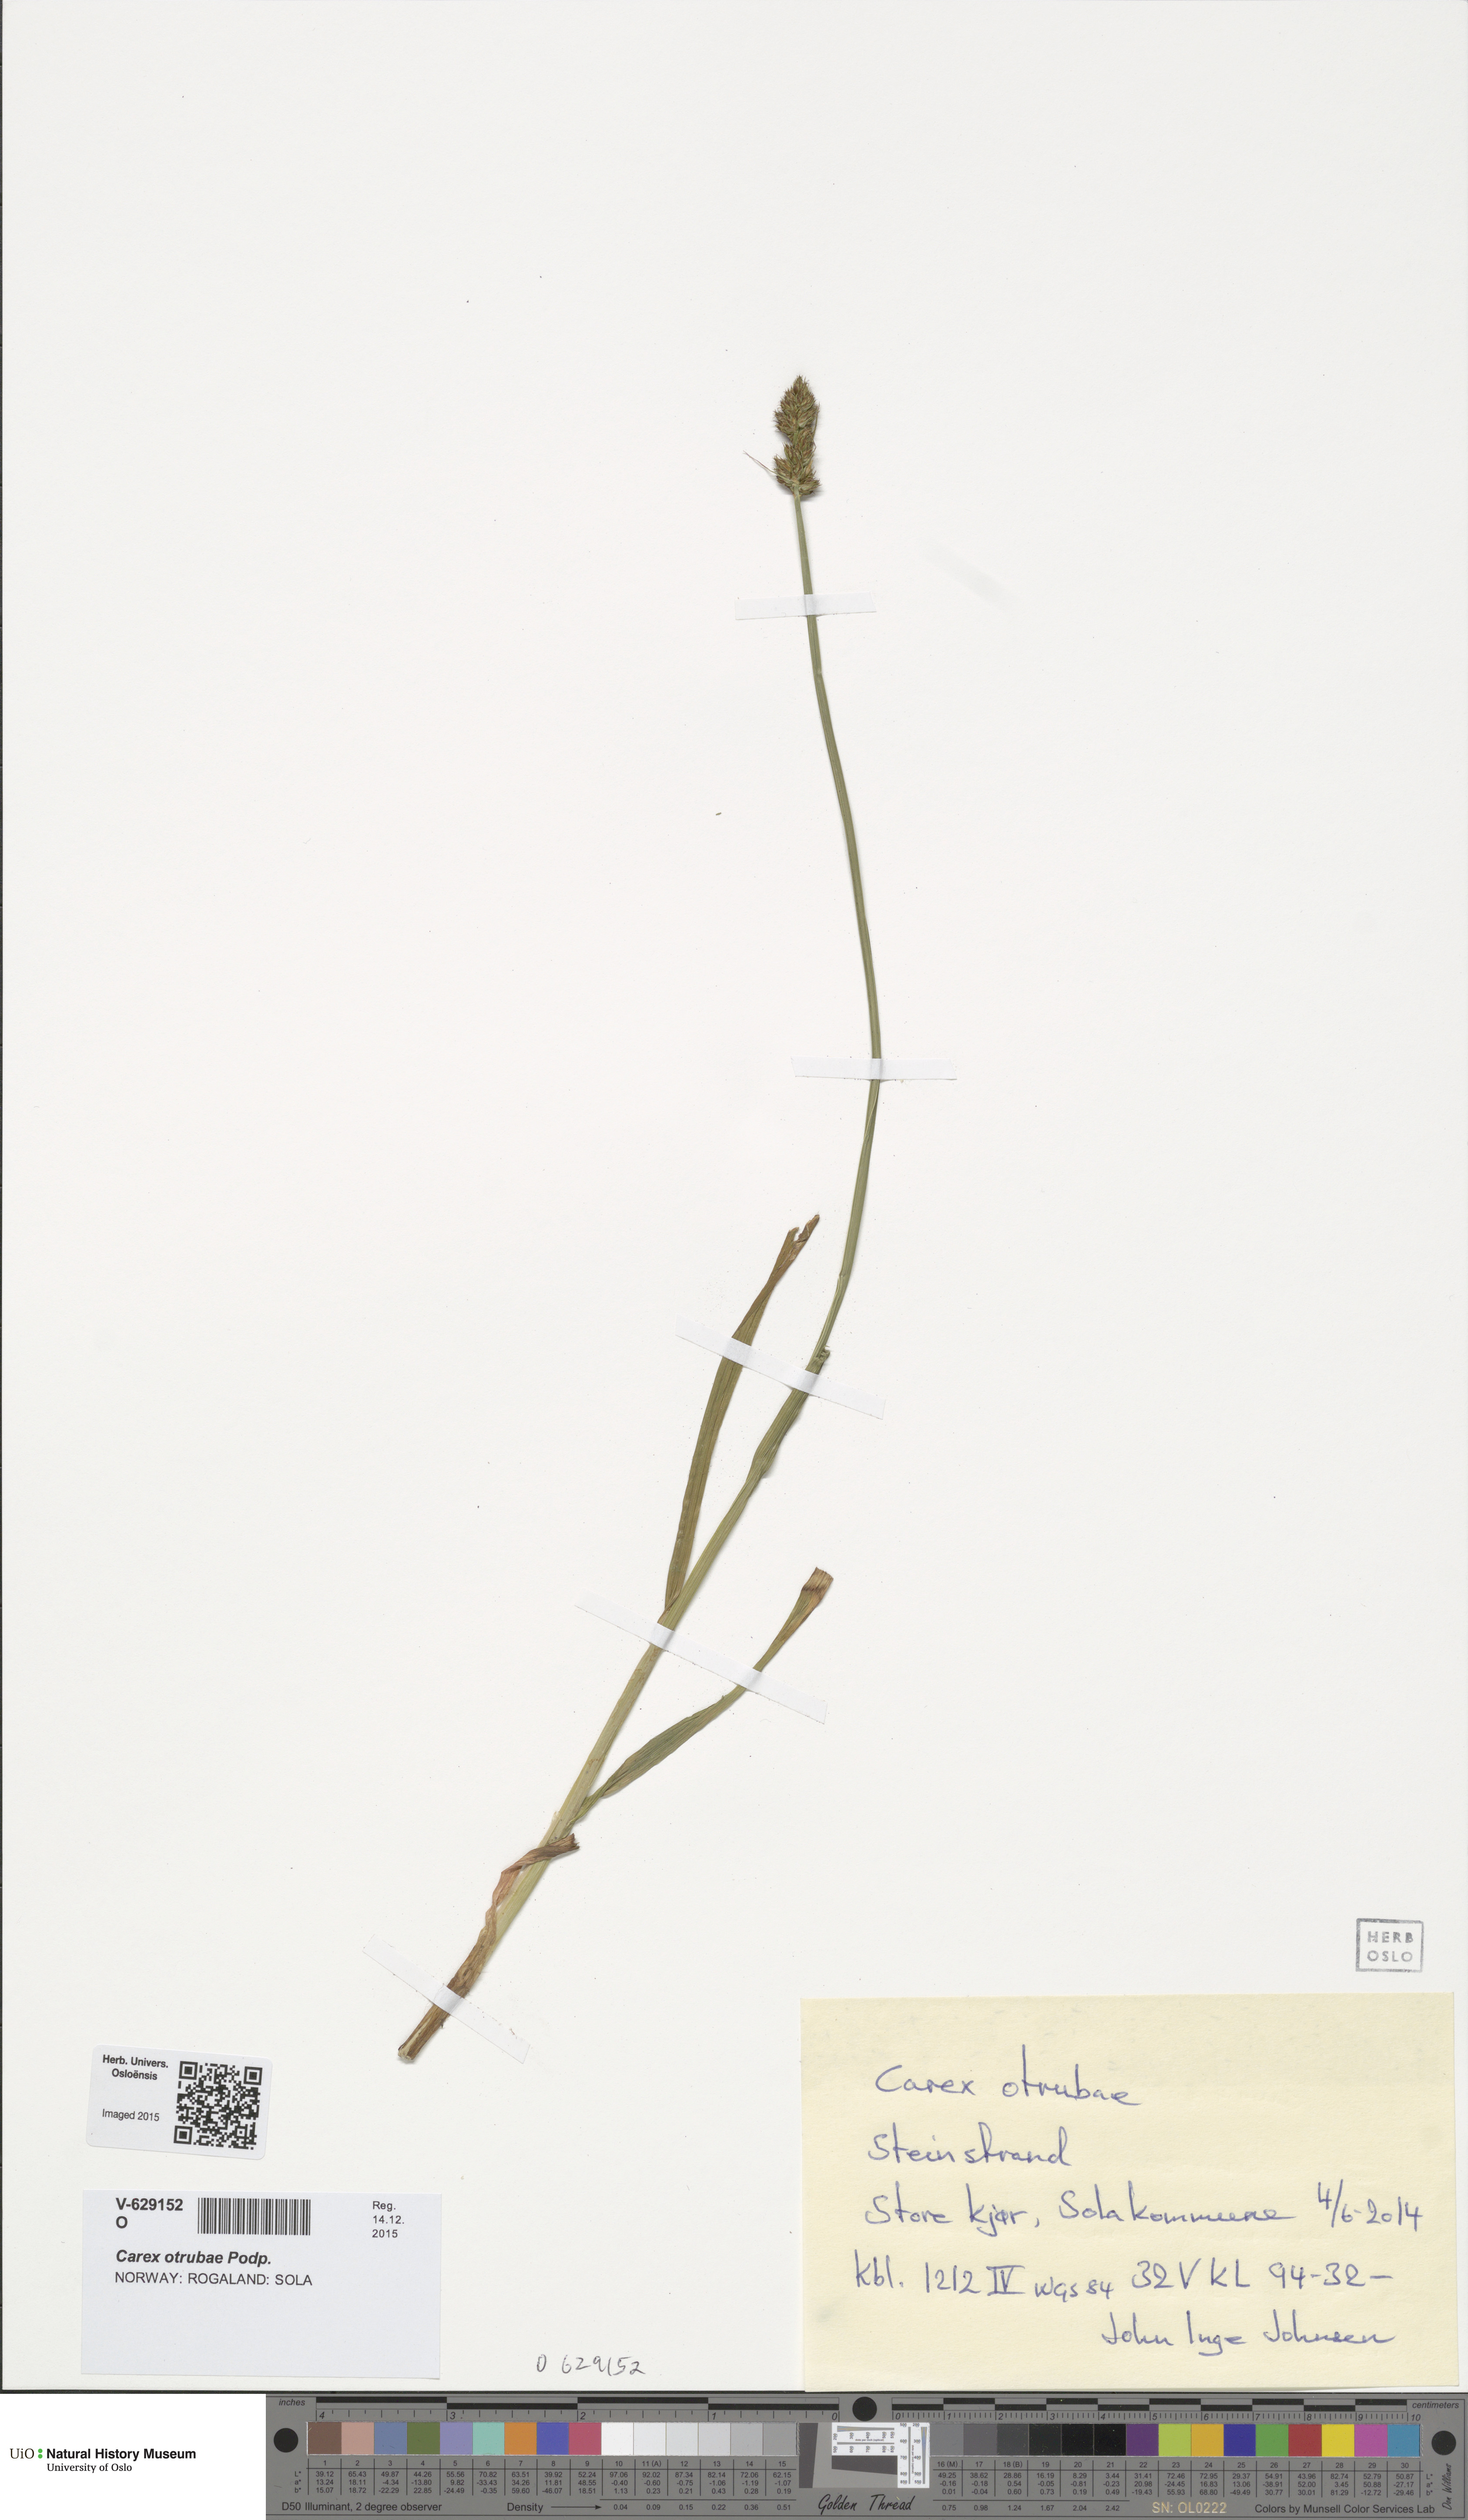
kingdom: Plantae
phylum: Tracheophyta
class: Liliopsida
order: Poales
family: Cyperaceae
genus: Carex
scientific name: Carex otrubae
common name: False fox-sedge
